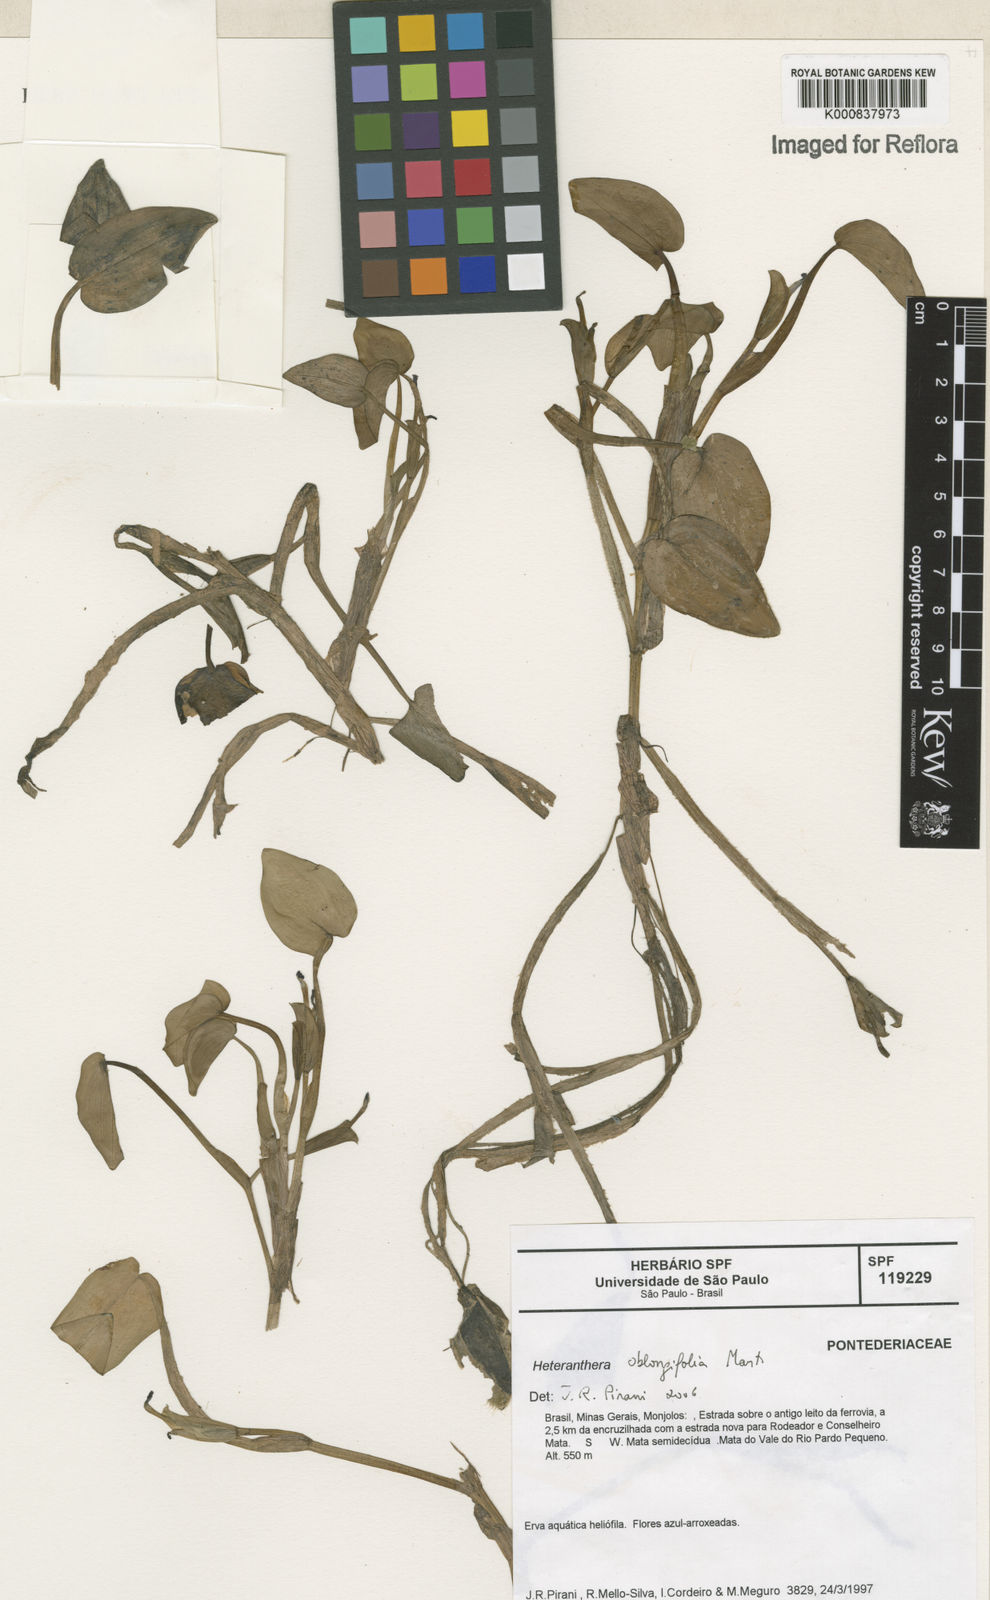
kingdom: Plantae
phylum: Tracheophyta
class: Liliopsida
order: Commelinales
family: Pontederiaceae
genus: Heteranthera
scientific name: Heteranthera oblongifolia
